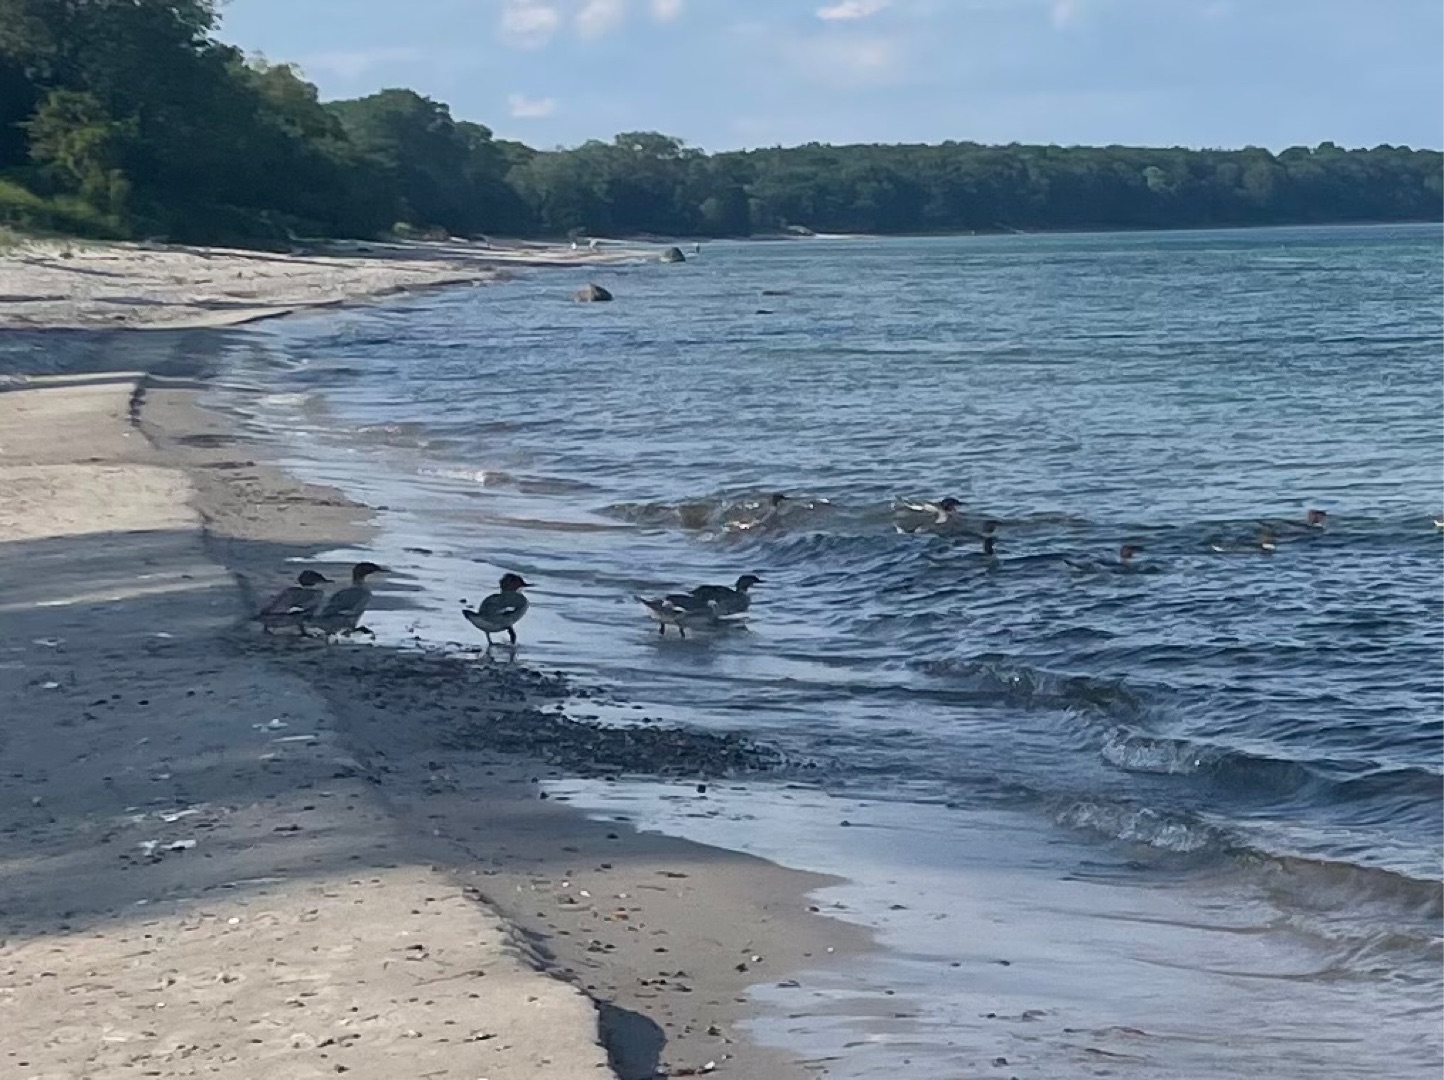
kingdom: Animalia
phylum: Chordata
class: Aves
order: Anseriformes
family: Anatidae
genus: Mergus
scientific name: Mergus serrator
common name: Toppet skallesluger
